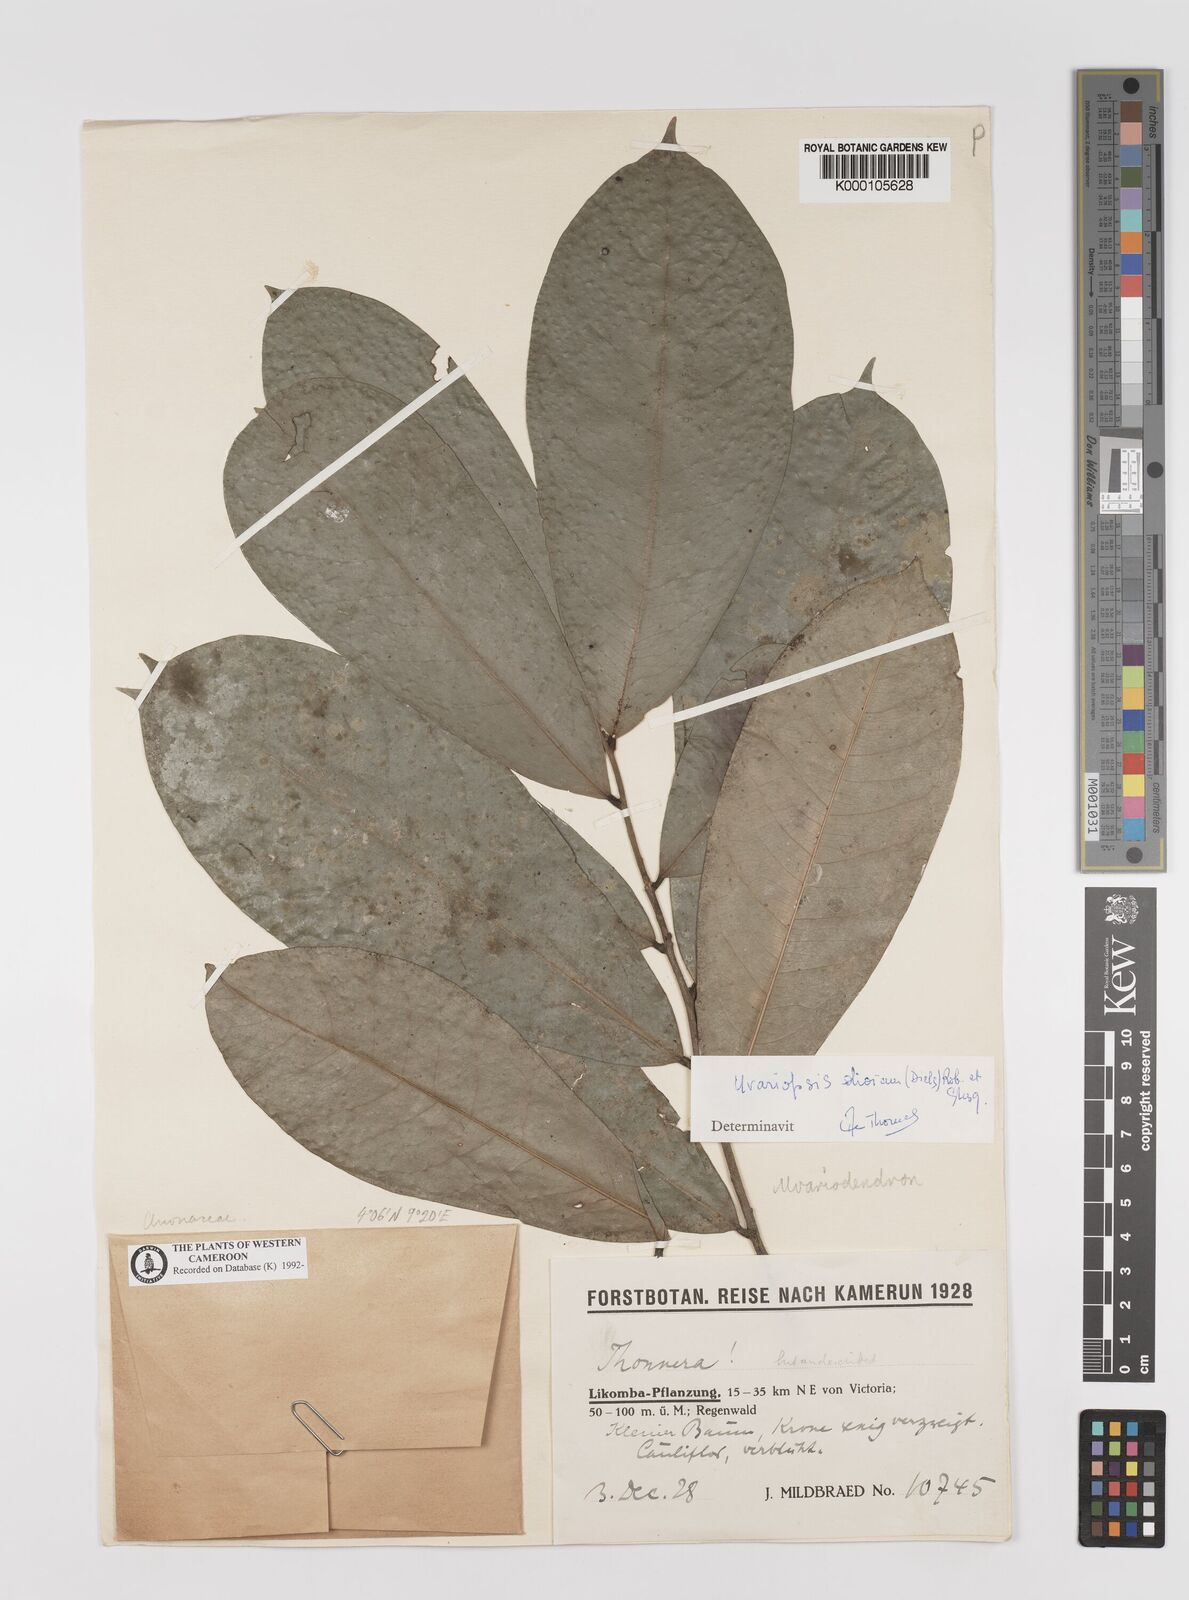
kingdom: Plantae
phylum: Tracheophyta
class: Magnoliopsida
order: Magnoliales
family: Annonaceae
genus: Uvariopsis
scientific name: Uvariopsis dioica
